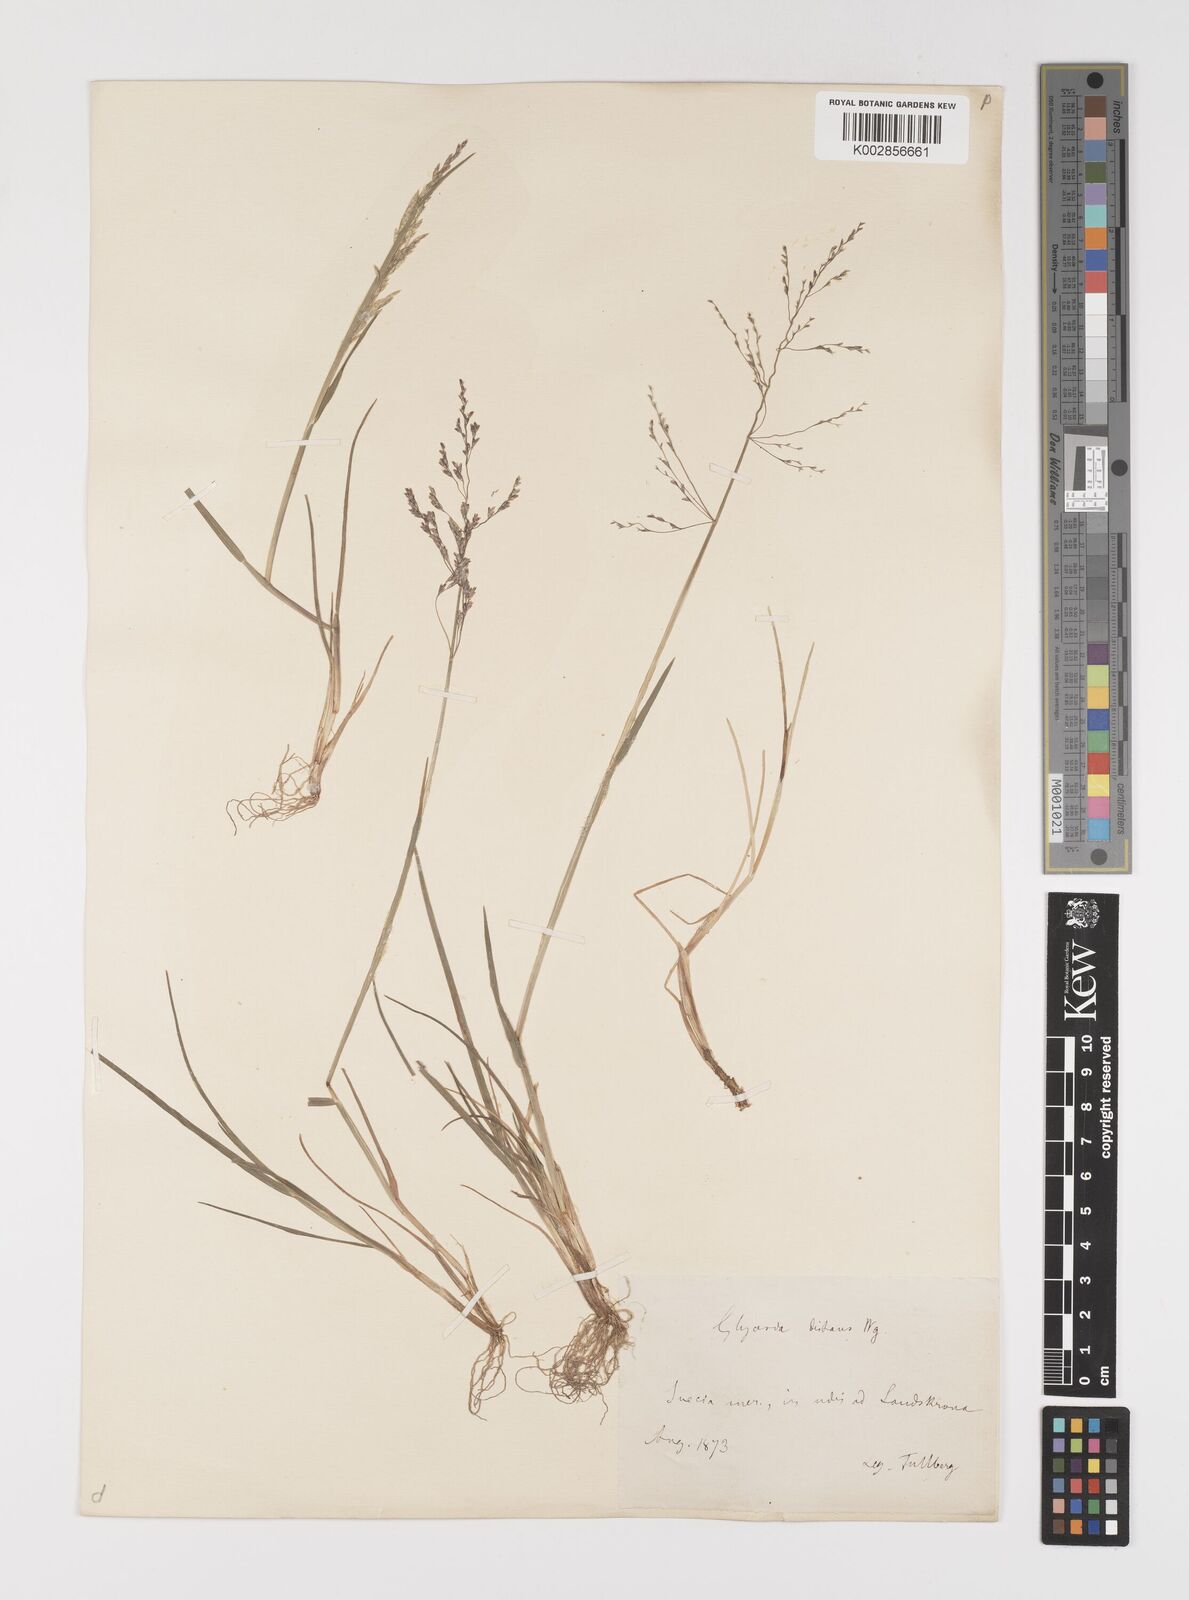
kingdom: Plantae
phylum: Tracheophyta
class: Liliopsida
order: Poales
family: Poaceae
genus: Puccinellia
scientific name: Puccinellia
